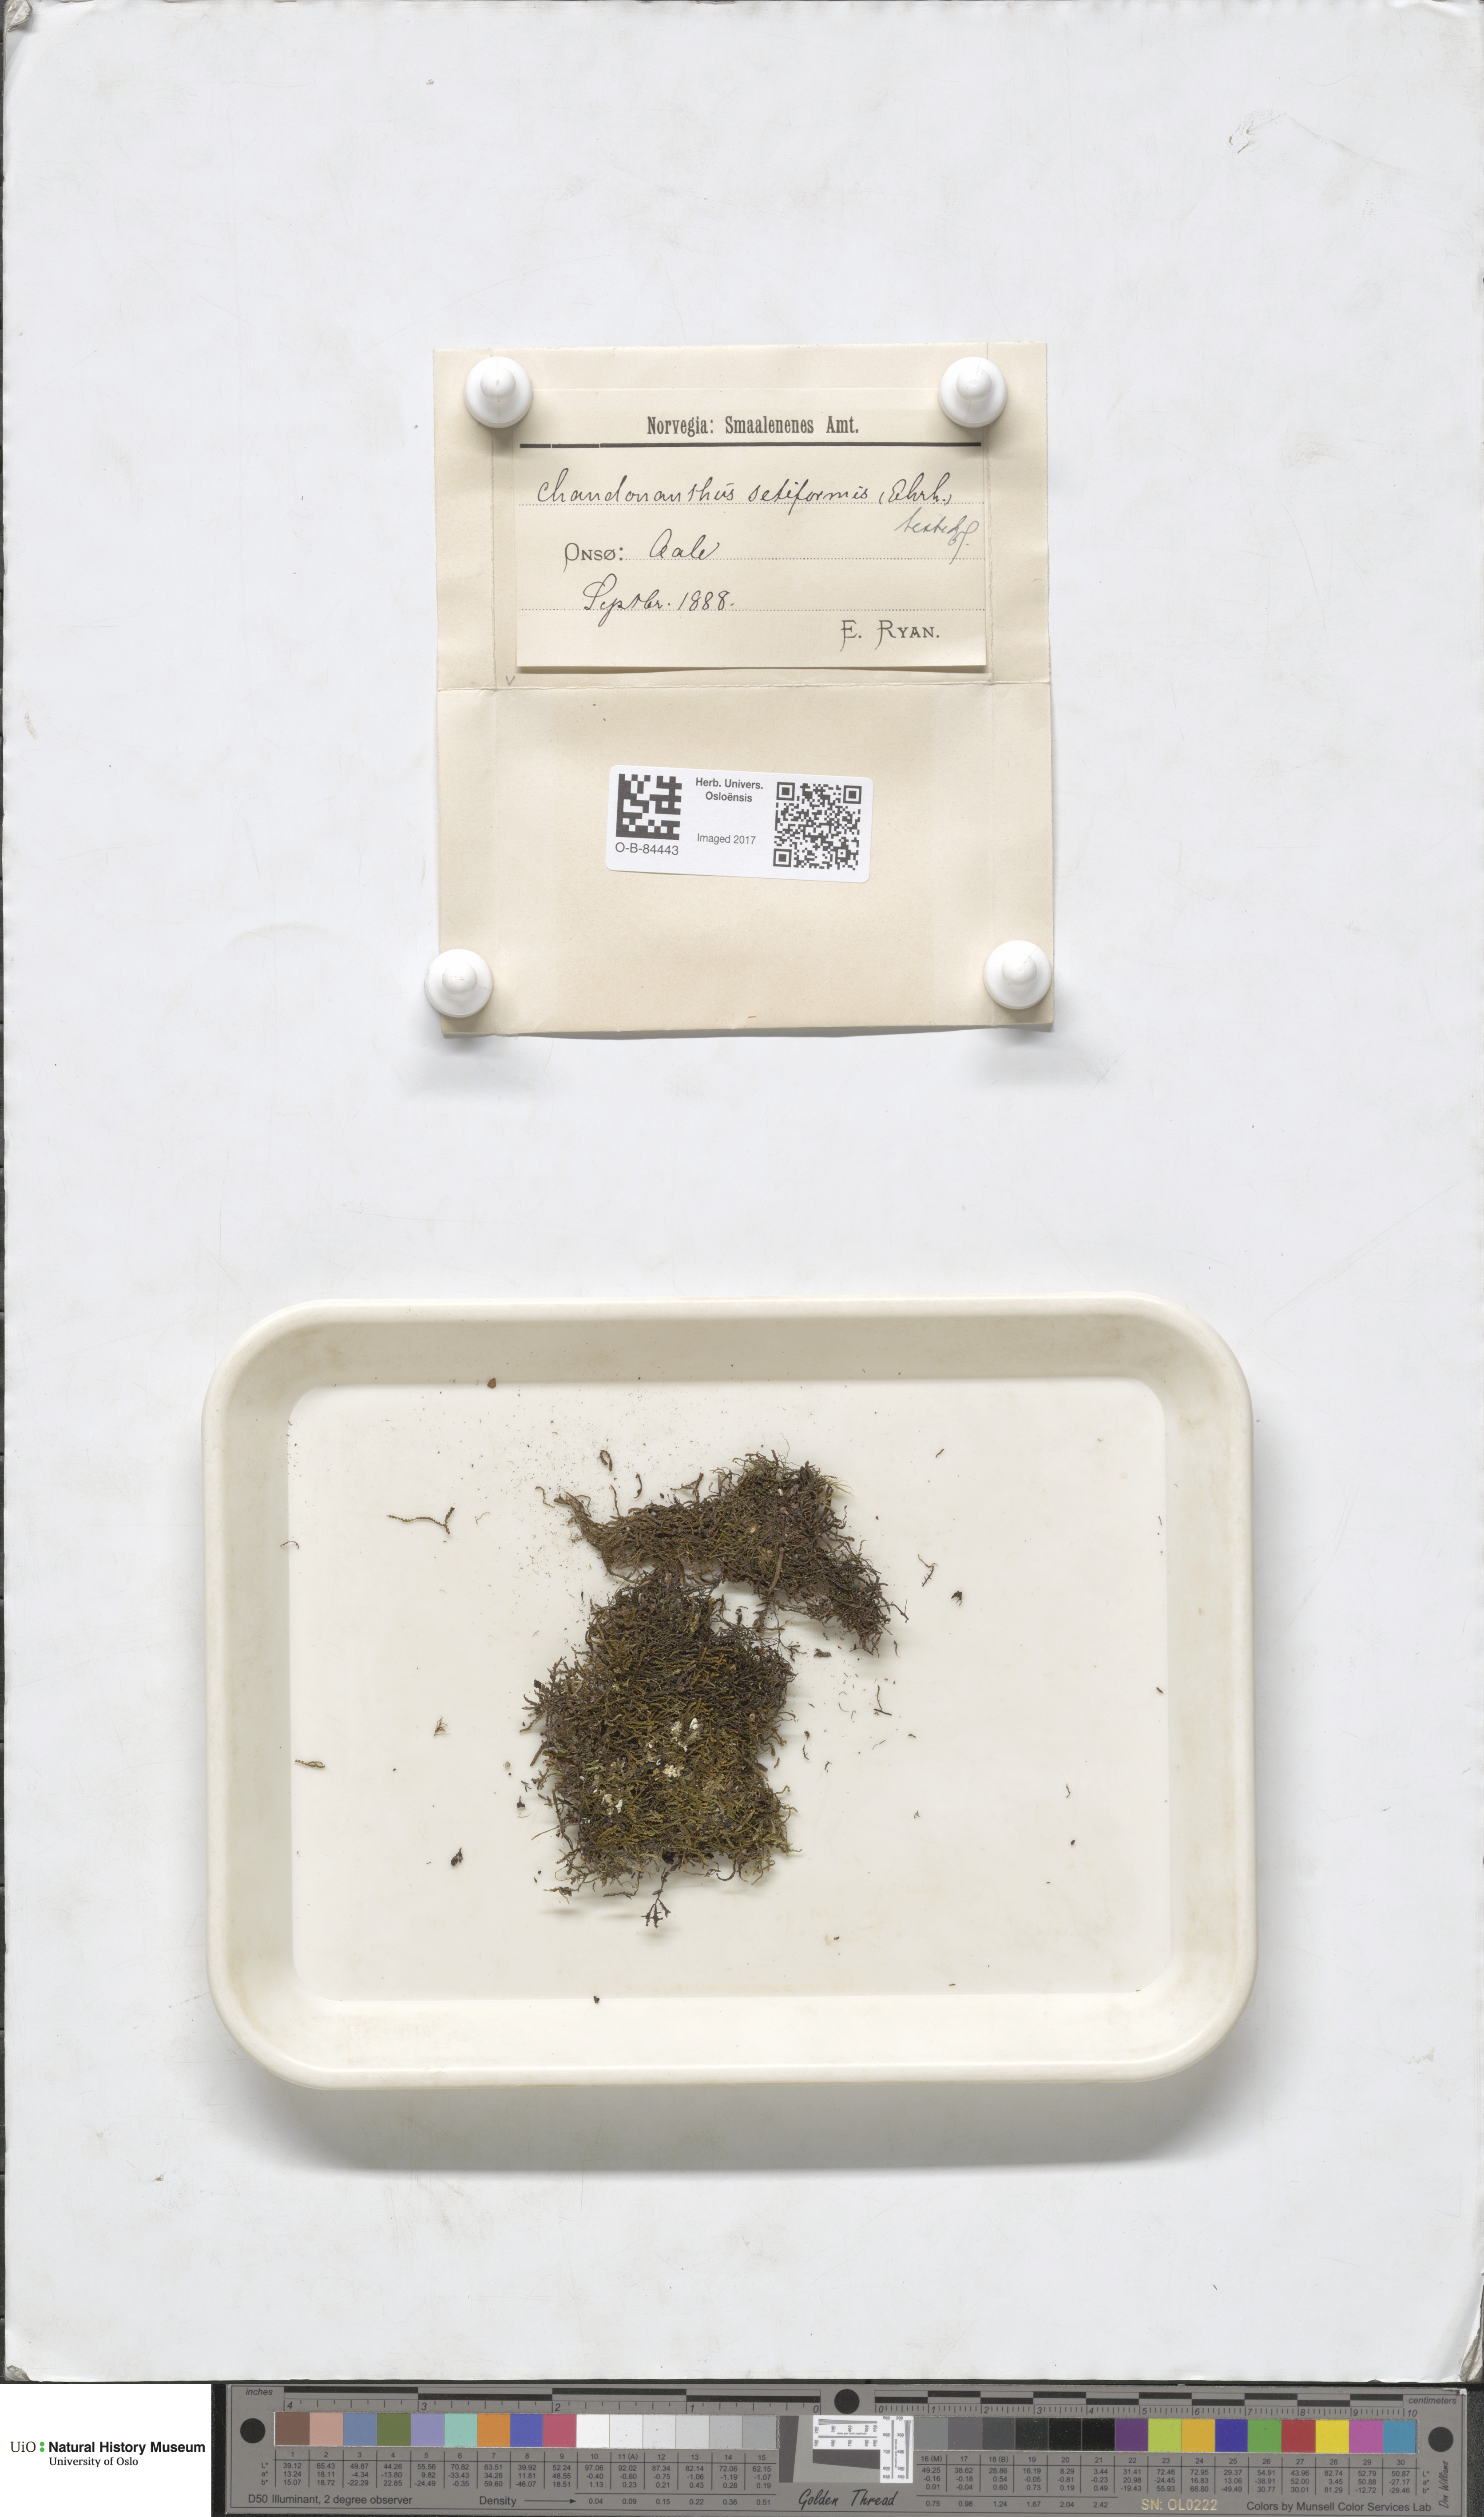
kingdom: Plantae
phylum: Marchantiophyta
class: Jungermanniopsida
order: Jungermanniales
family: Anastrophyllaceae
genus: Tetralophozia
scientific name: Tetralophozia setiformis
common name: Monster pawwort
